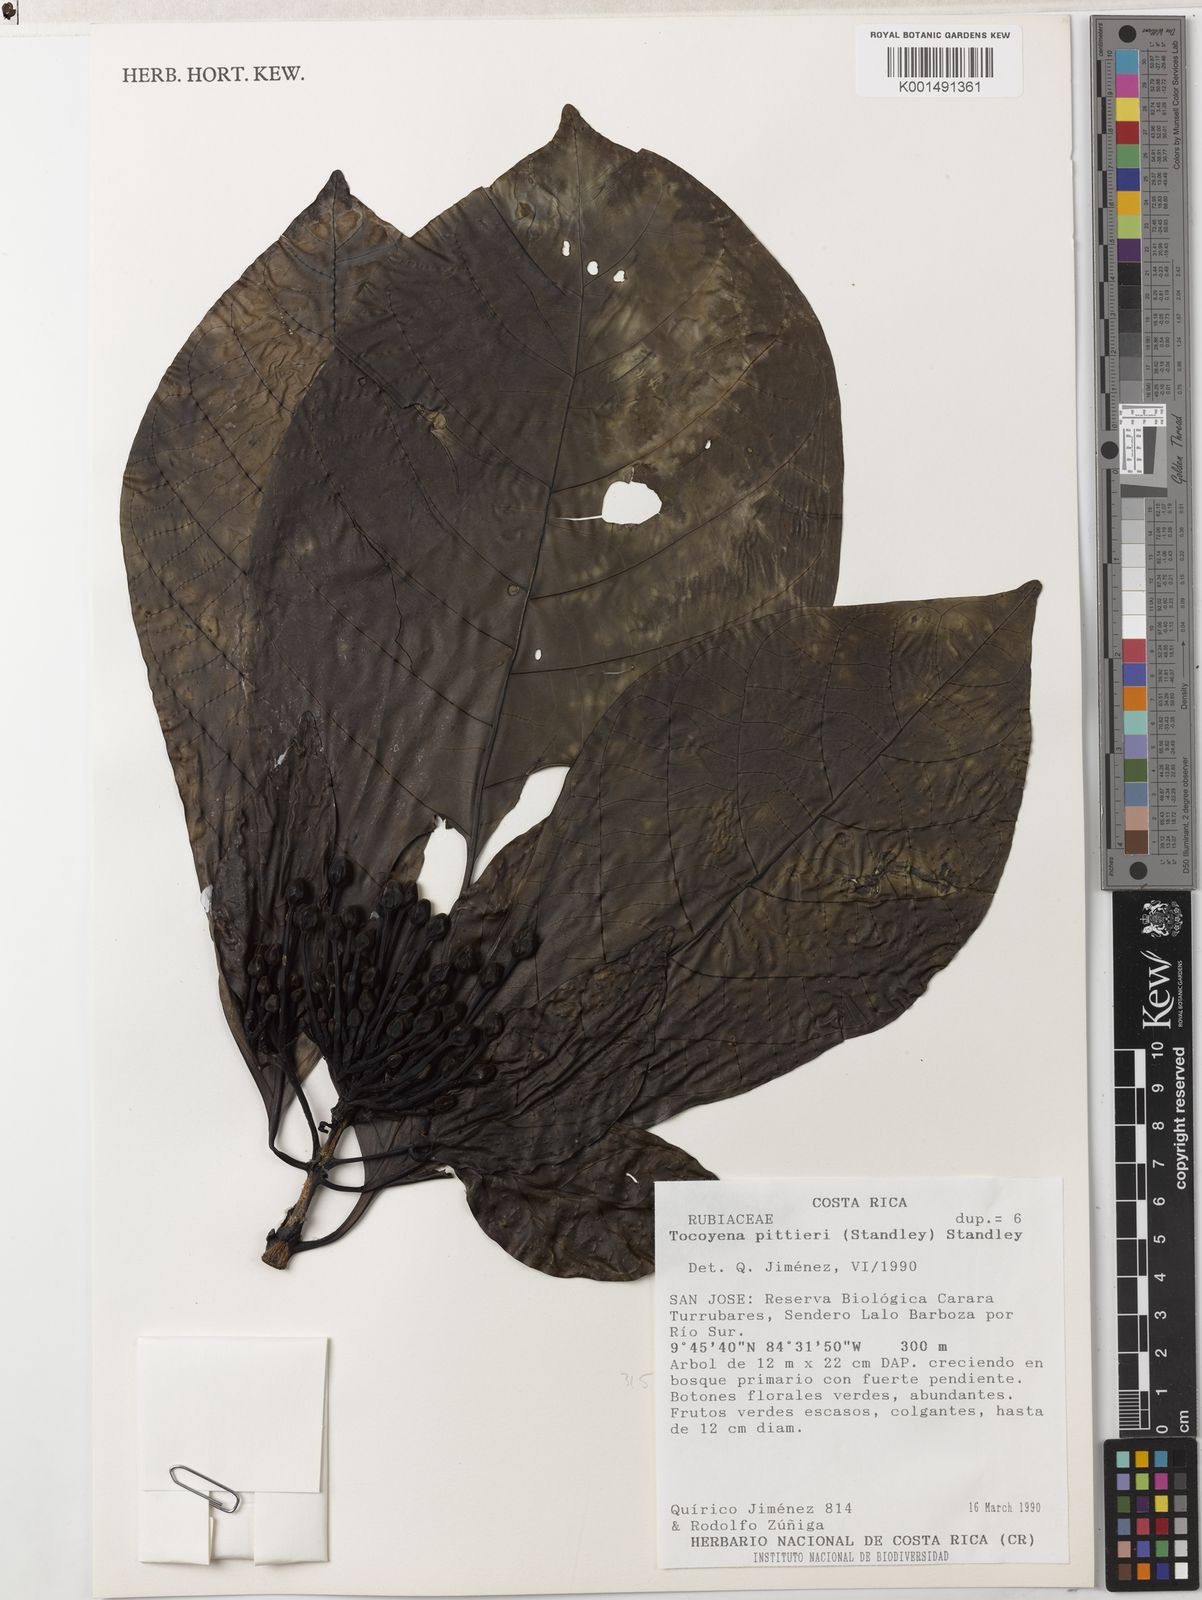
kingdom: Plantae
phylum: Tracheophyta
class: Magnoliopsida
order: Gentianales
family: Rubiaceae
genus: Tocoyena
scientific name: Tocoyena pittieri
